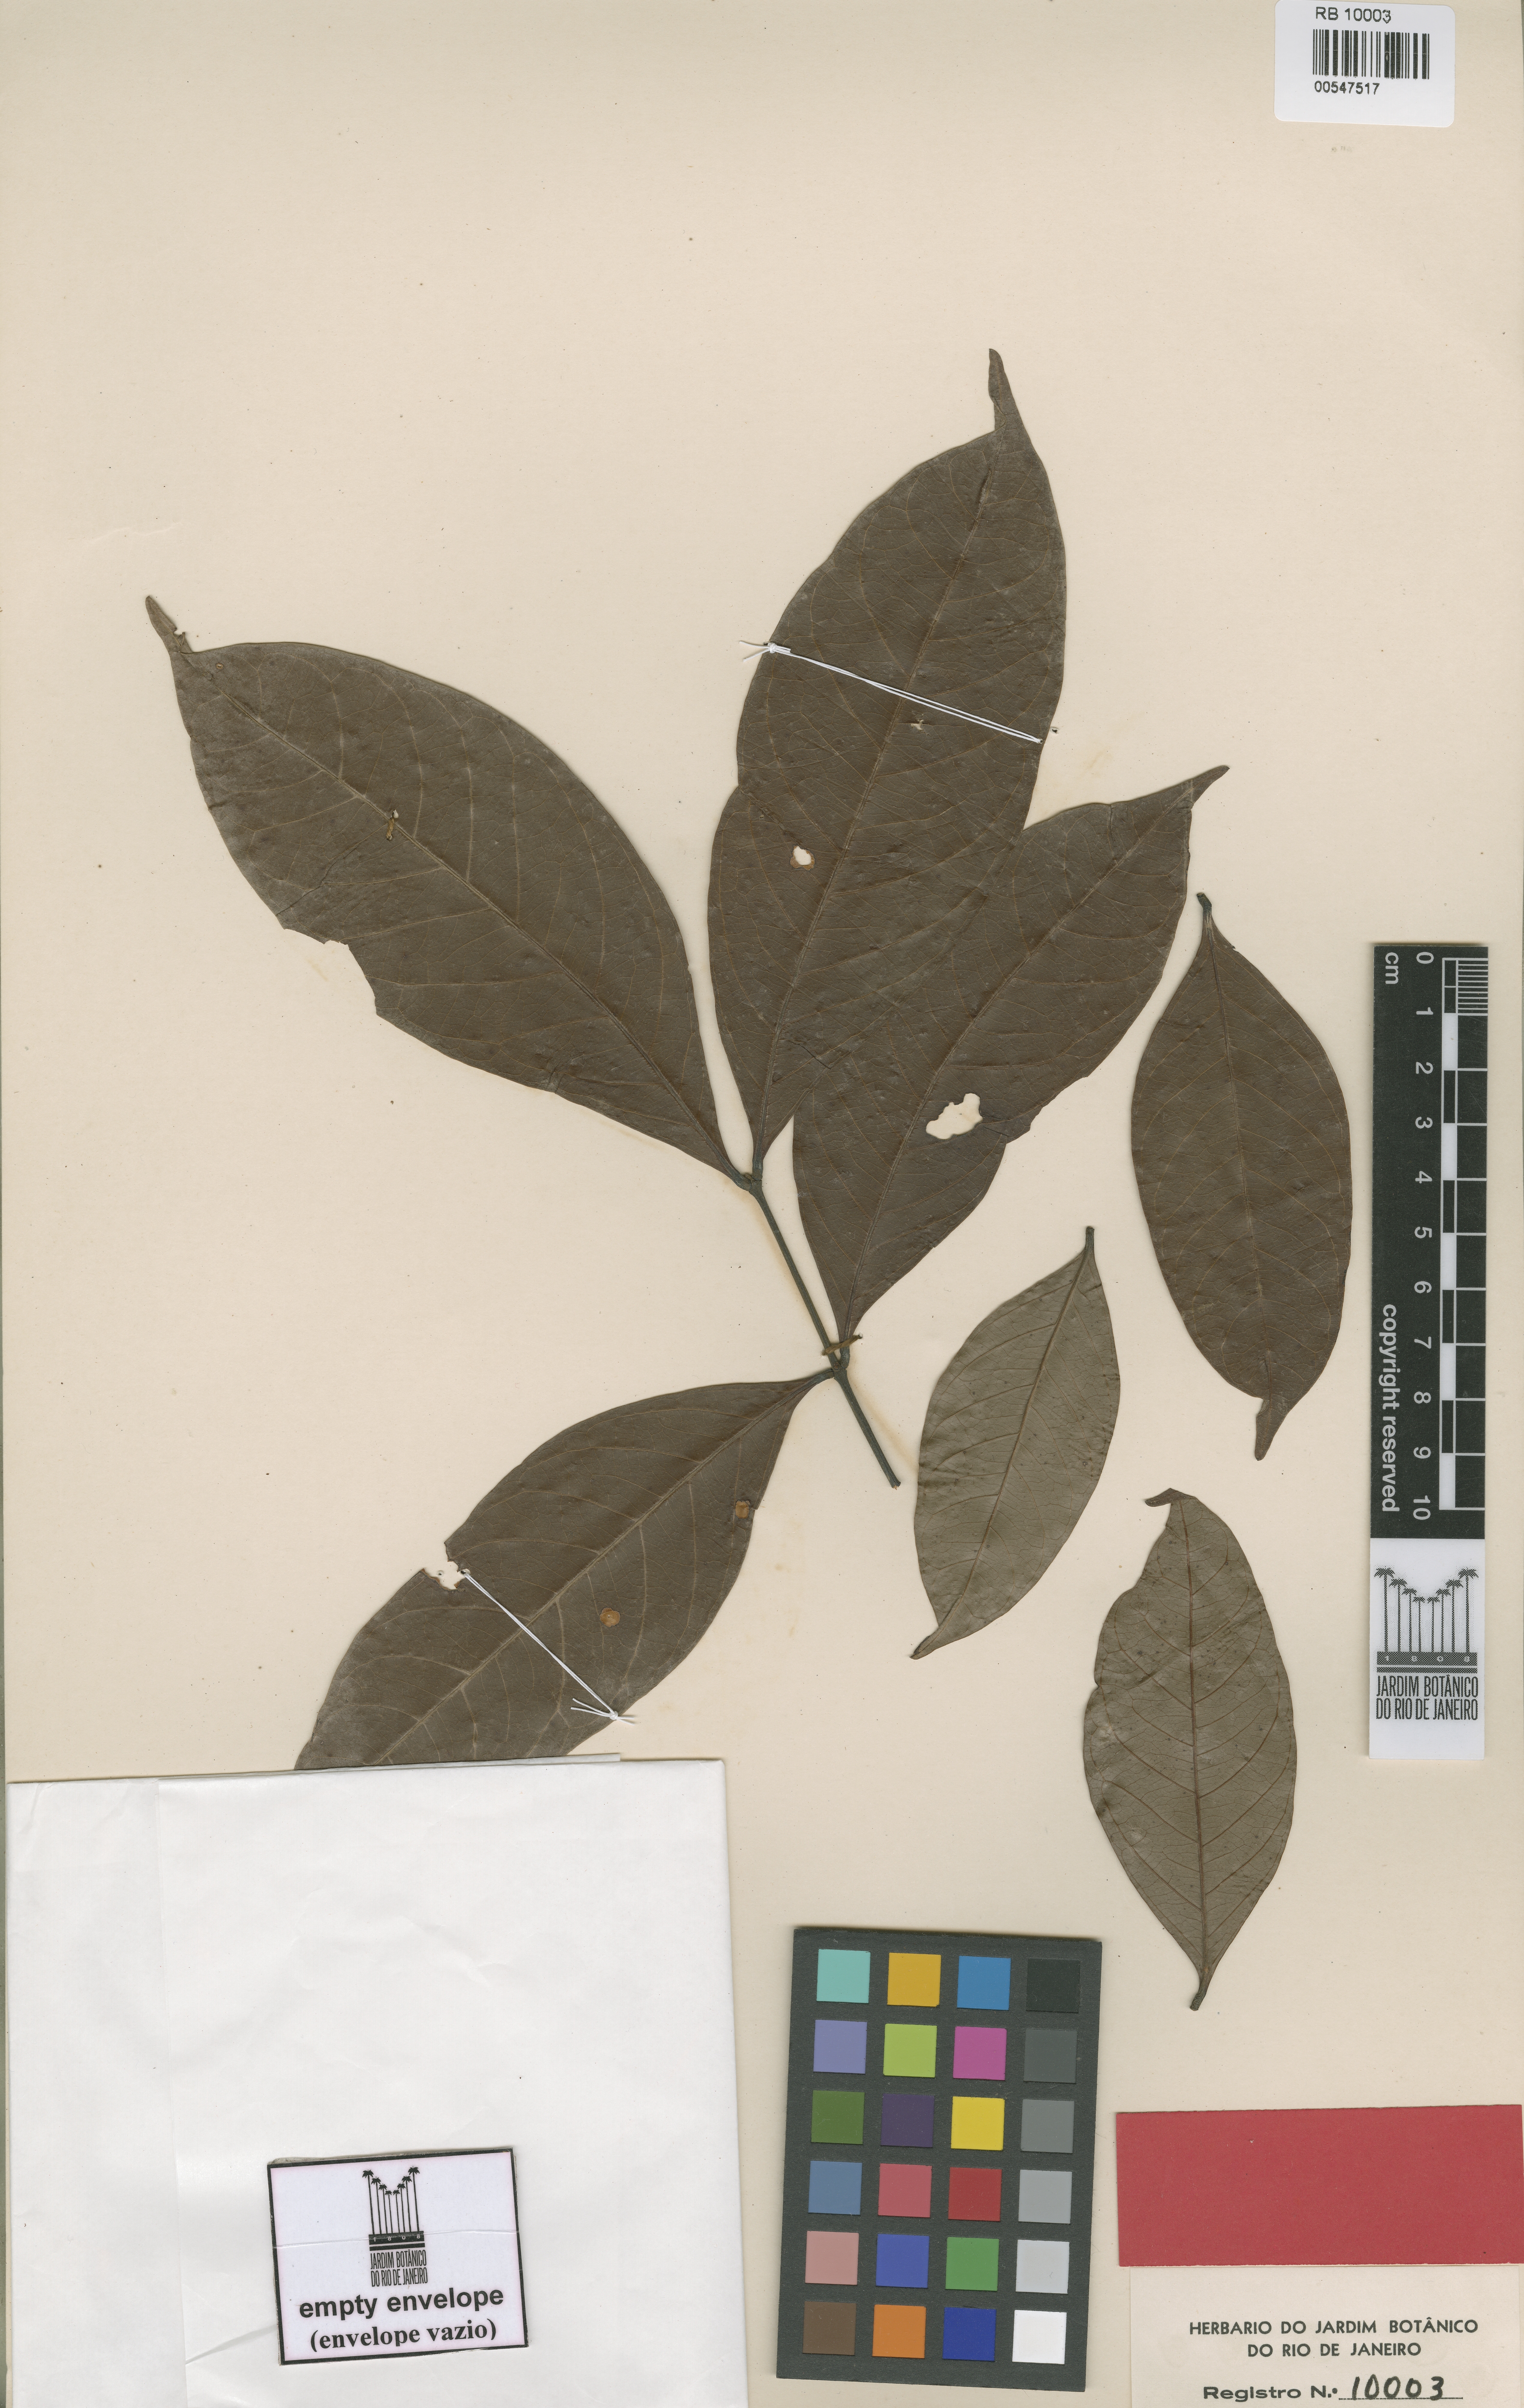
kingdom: Plantae
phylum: Tracheophyta
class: Magnoliopsida
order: Fabales
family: Fabaceae
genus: Inga
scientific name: Inga glomeriflora
